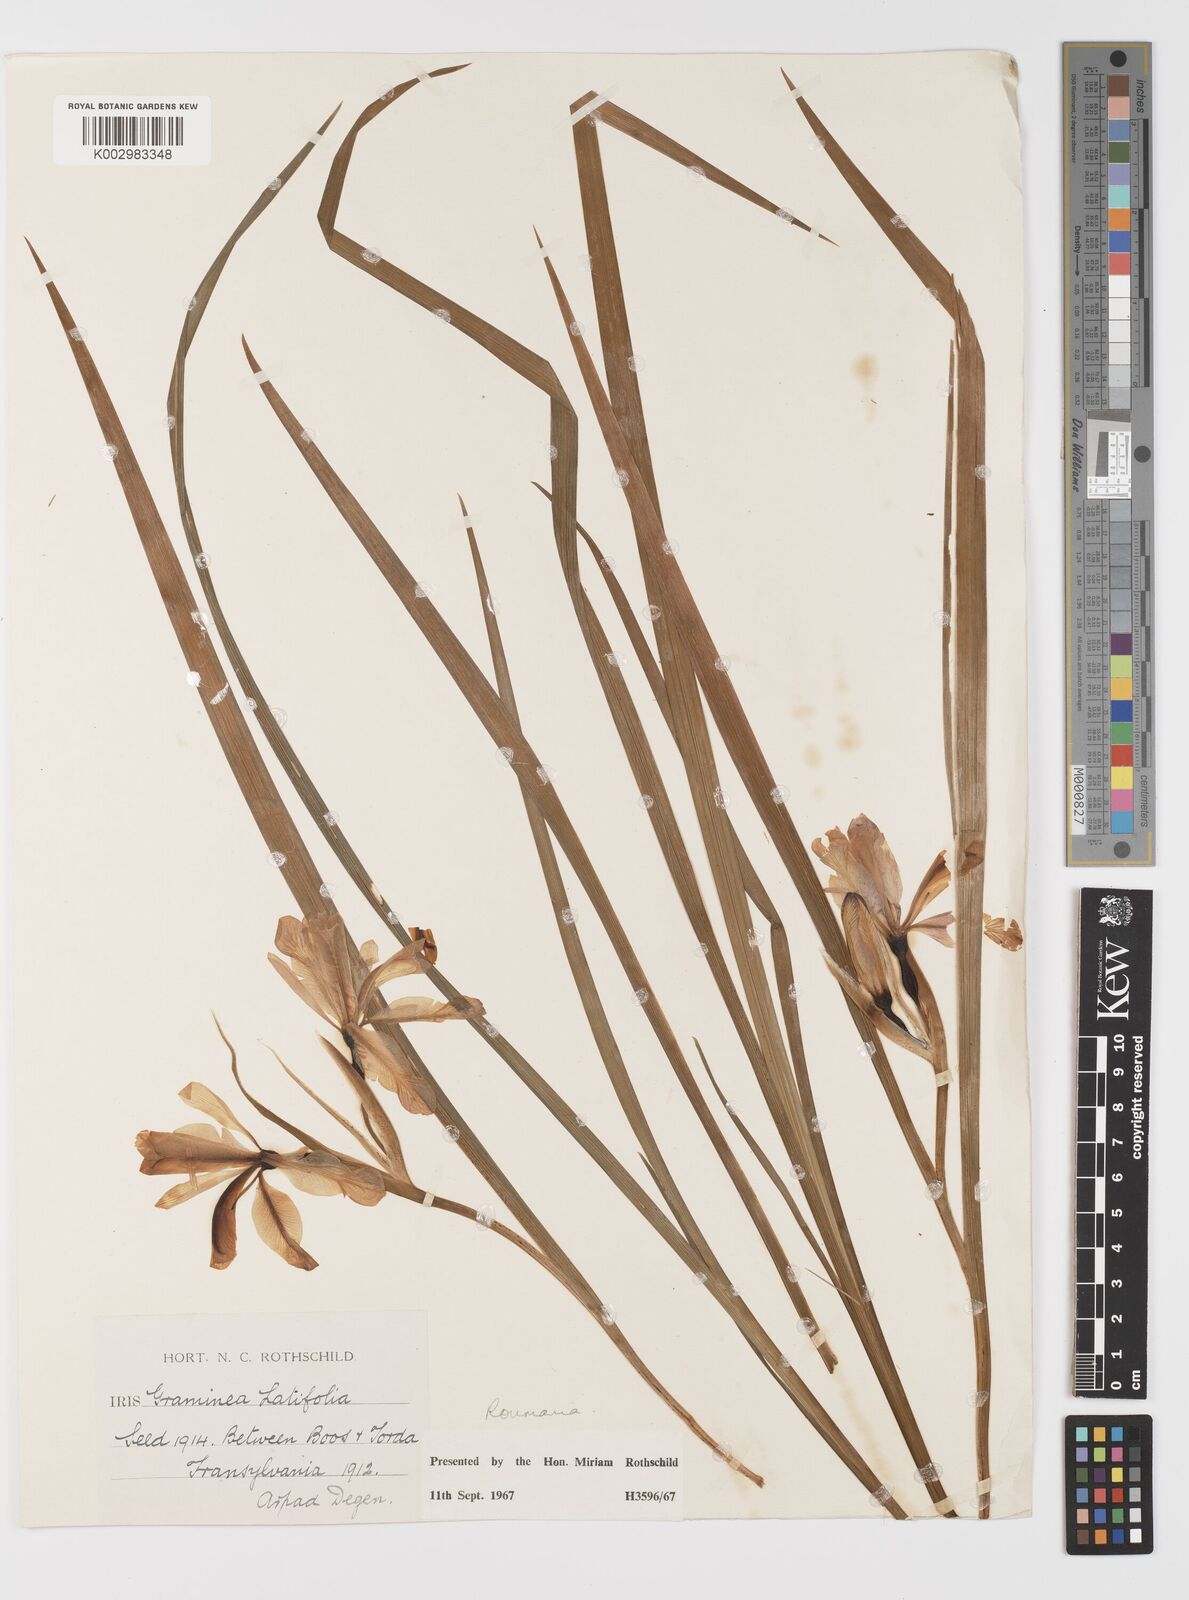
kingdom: Plantae
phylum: Tracheophyta
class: Liliopsida
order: Asparagales
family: Iridaceae
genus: Iris
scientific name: Iris graminea
